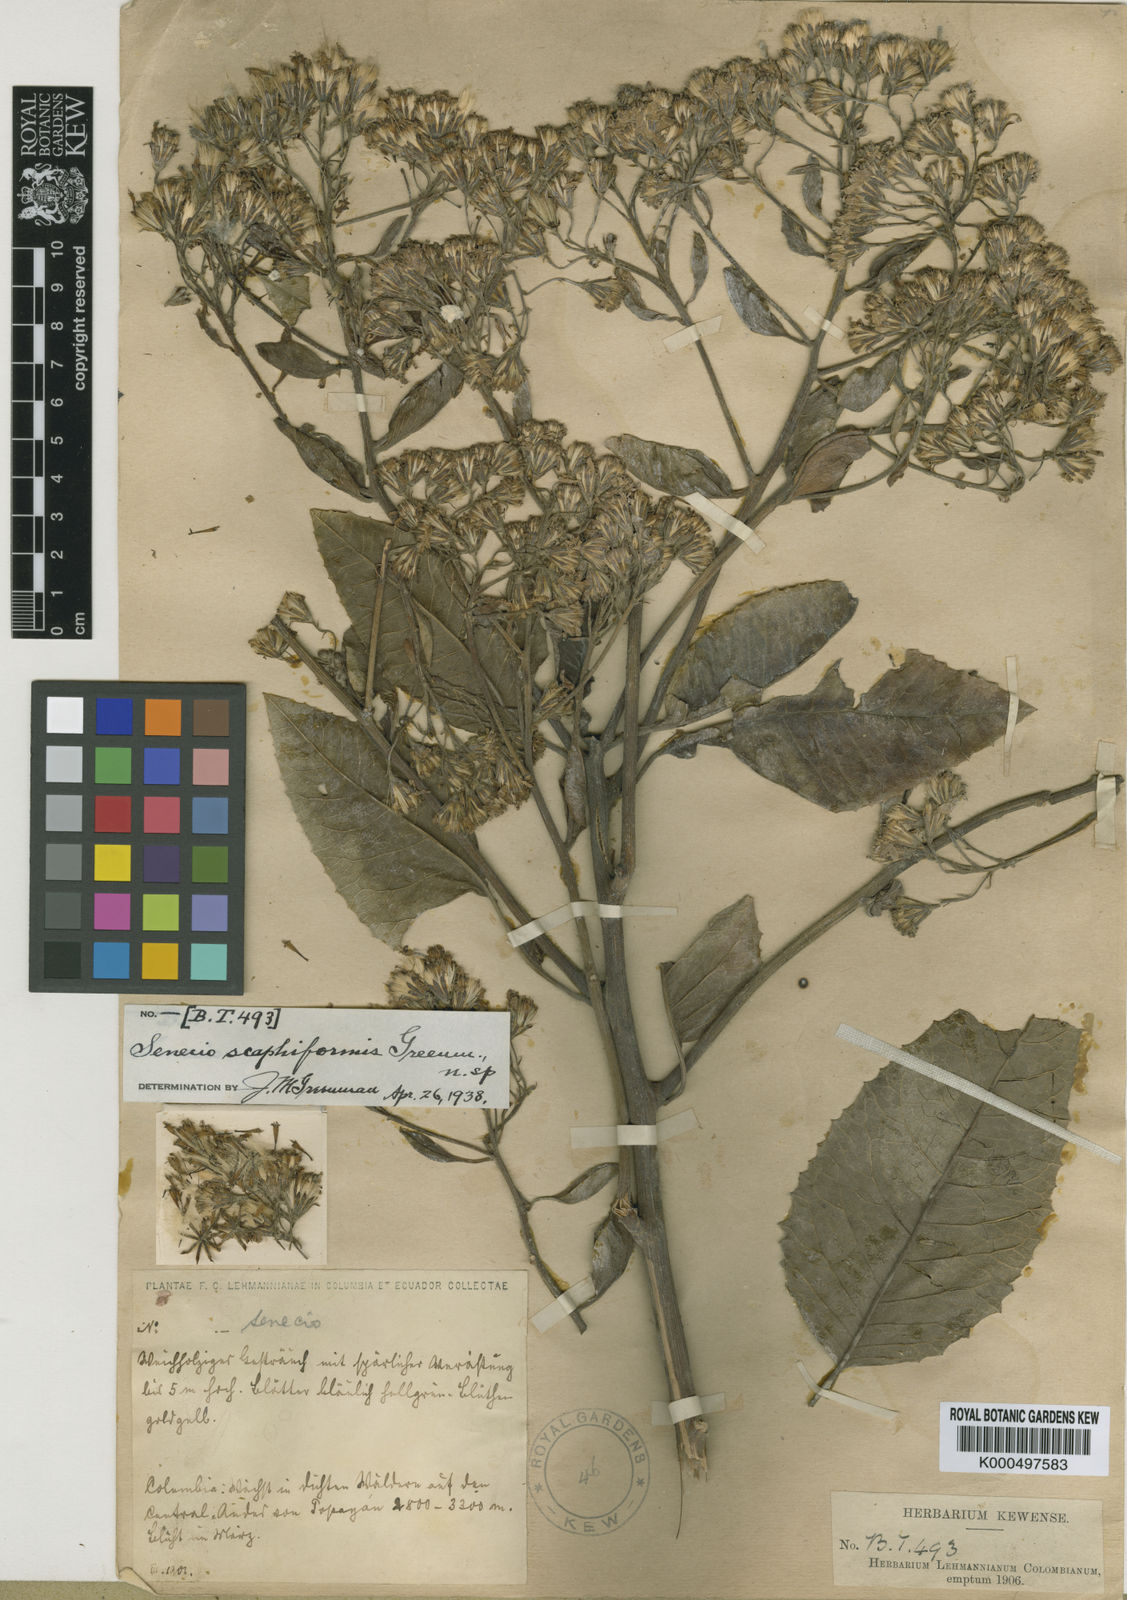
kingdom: Plantae
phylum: Tracheophyta
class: Magnoliopsida
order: Asterales
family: Asteraceae
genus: Dendrophorbium
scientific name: Dendrophorbium scaphiforme
